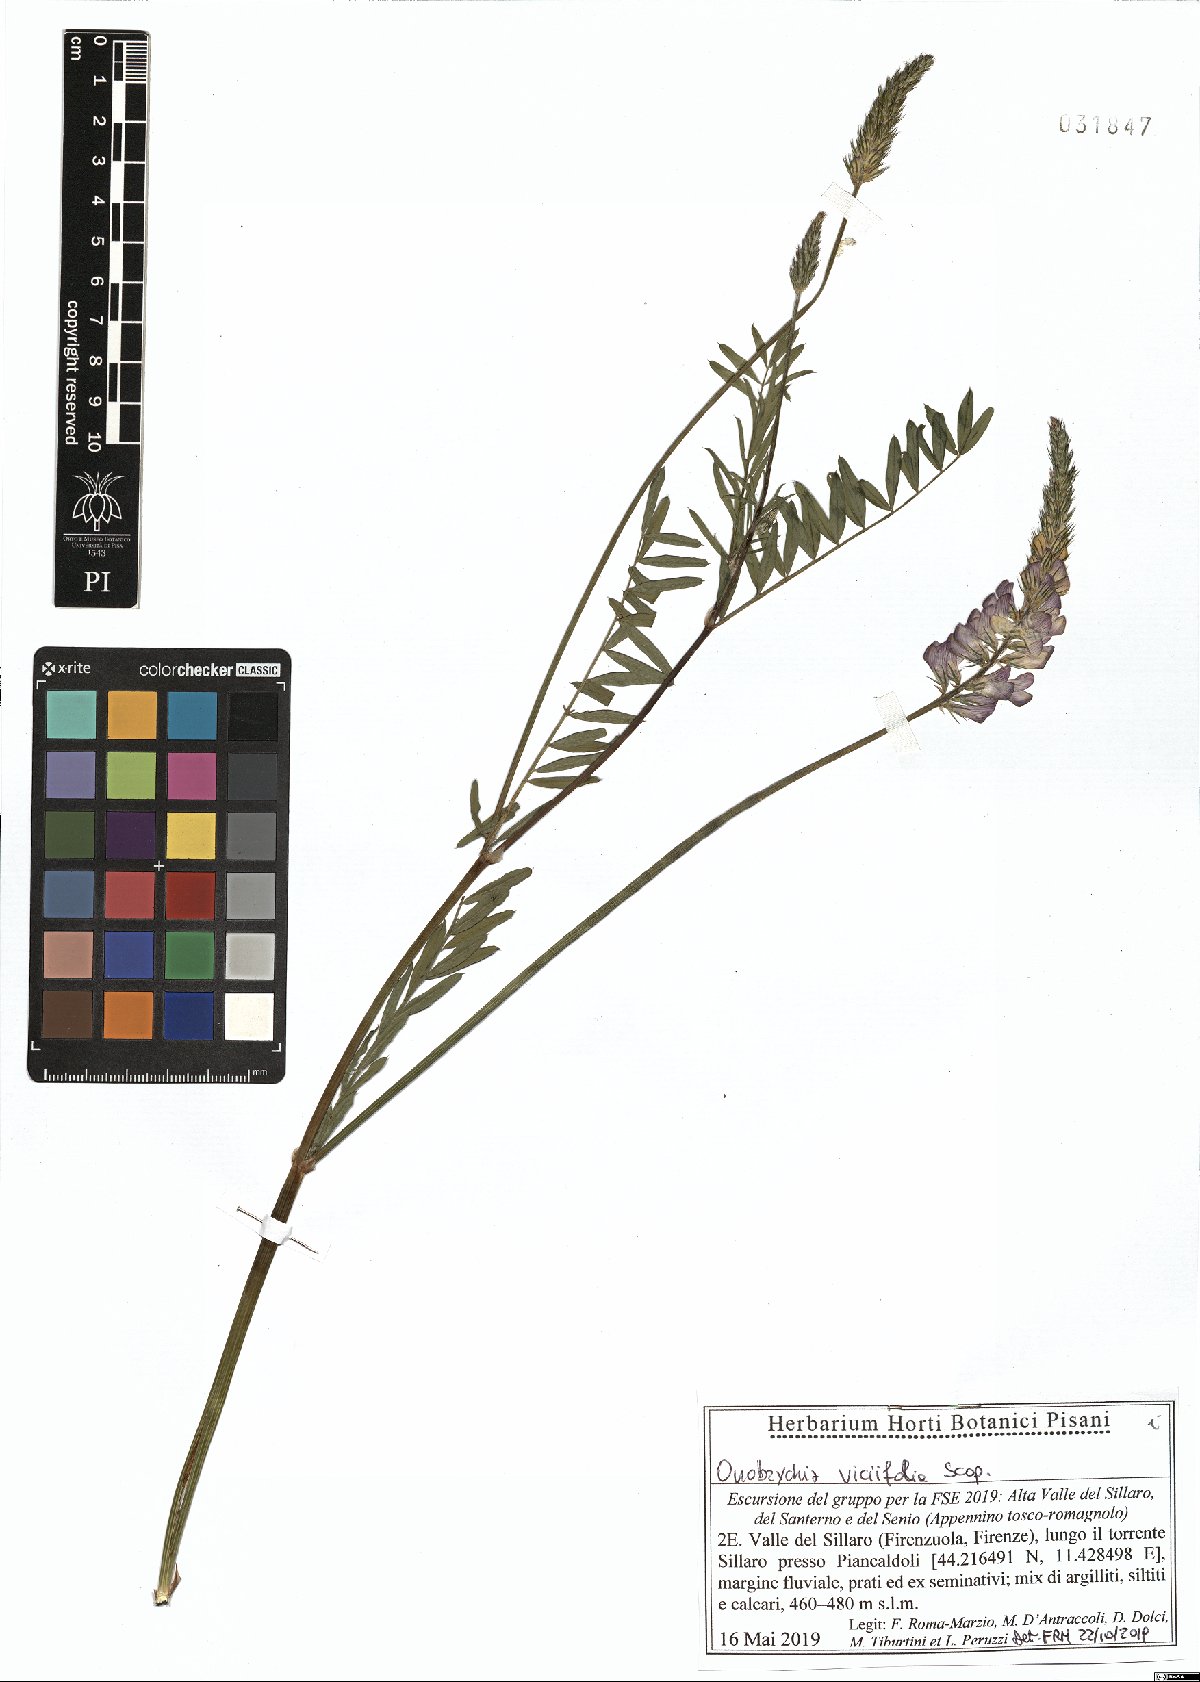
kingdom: Plantae
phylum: Tracheophyta
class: Magnoliopsida
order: Fabales
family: Fabaceae
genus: Onobrychis
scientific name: Onobrychis viciifolia
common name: Sainfoin
